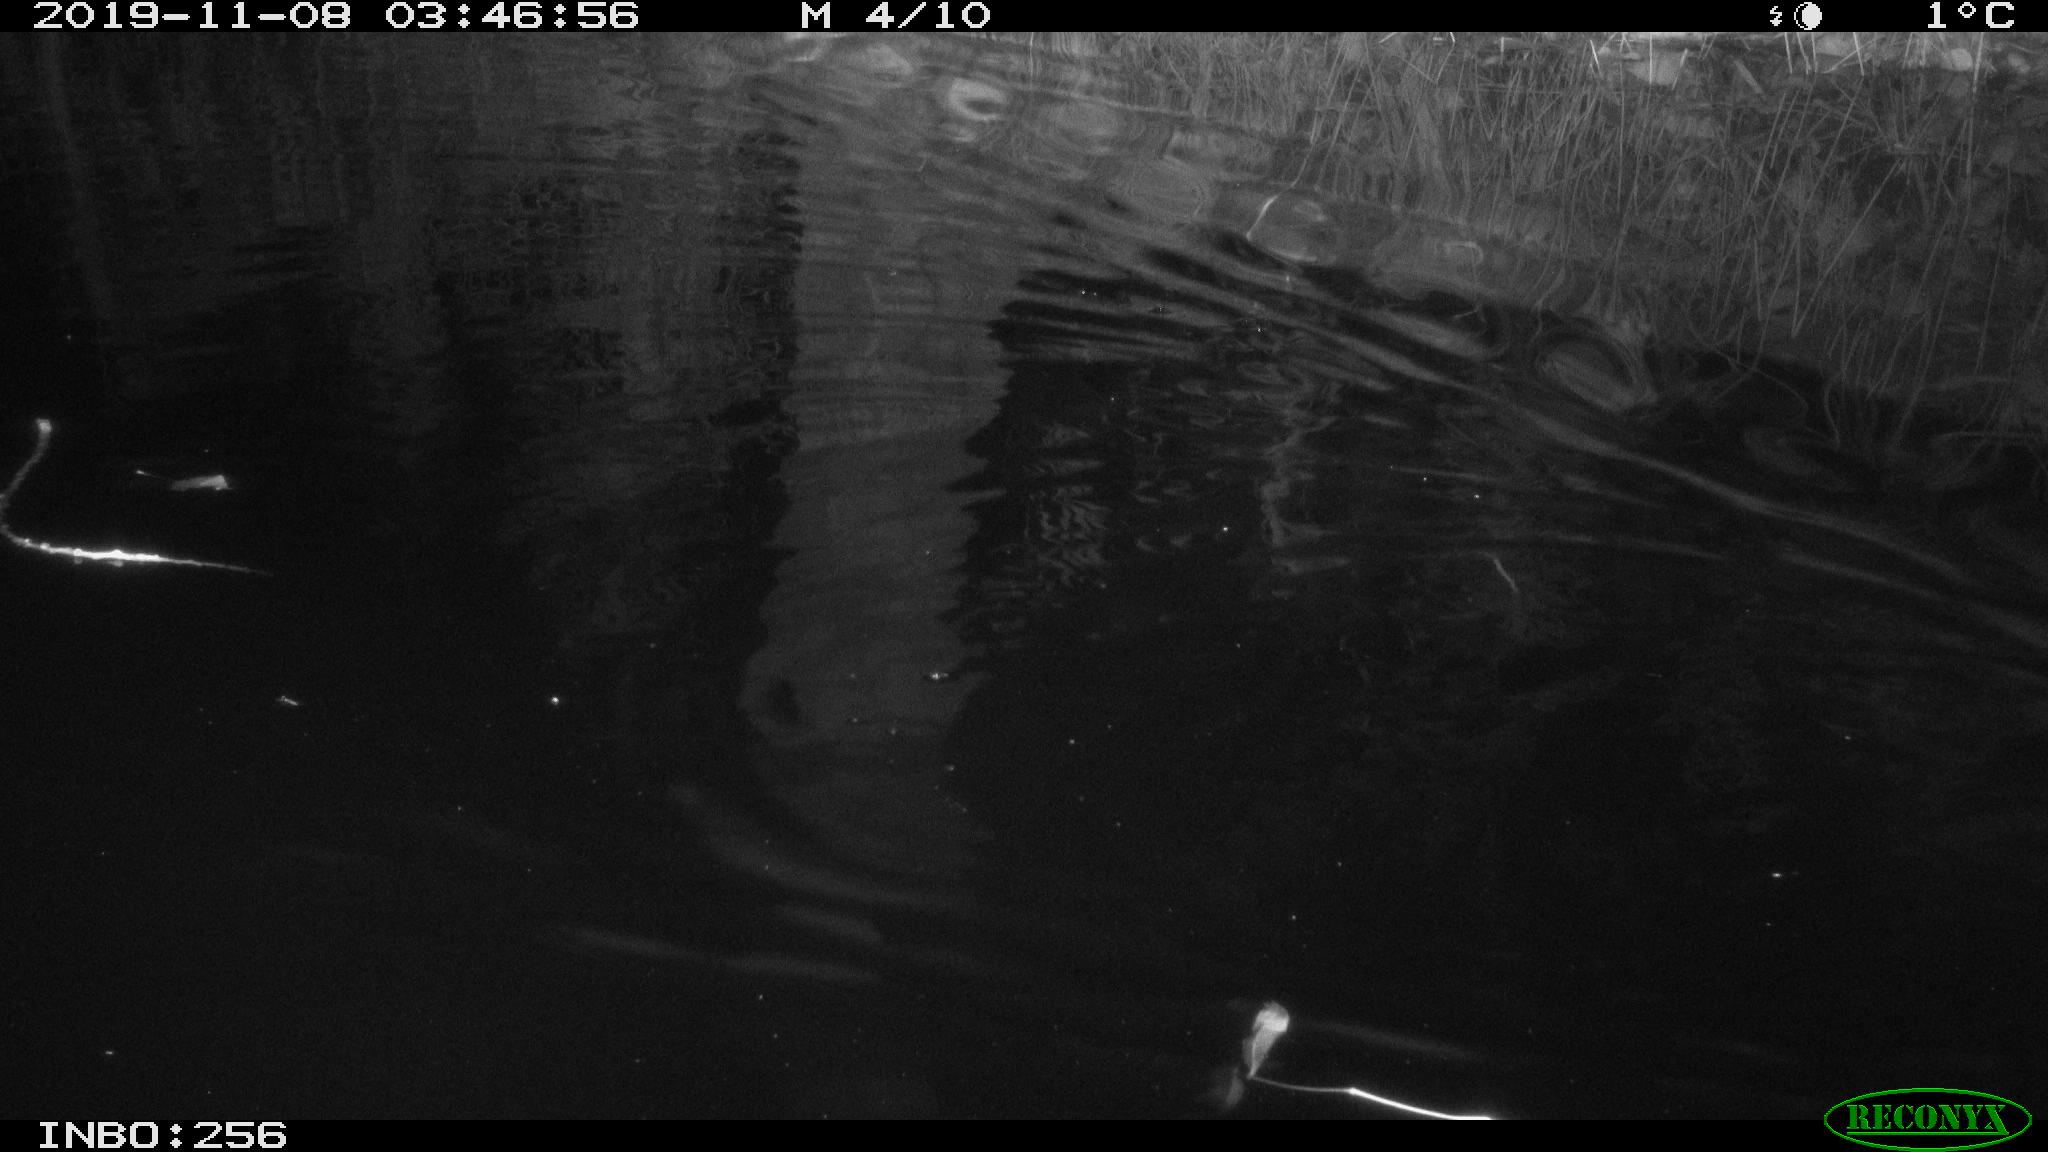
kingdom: Animalia
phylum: Chordata
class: Mammalia
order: Rodentia
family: Cricetidae
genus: Ondatra
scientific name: Ondatra zibethicus
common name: Muskrat
